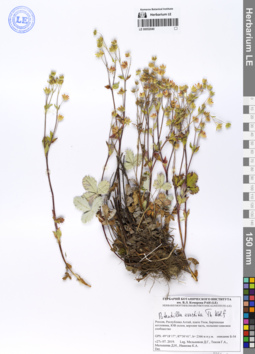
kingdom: Plantae
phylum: Tracheophyta
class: Magnoliopsida
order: Rosales
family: Rosaceae
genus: Potentilla
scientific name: Potentilla evestita
